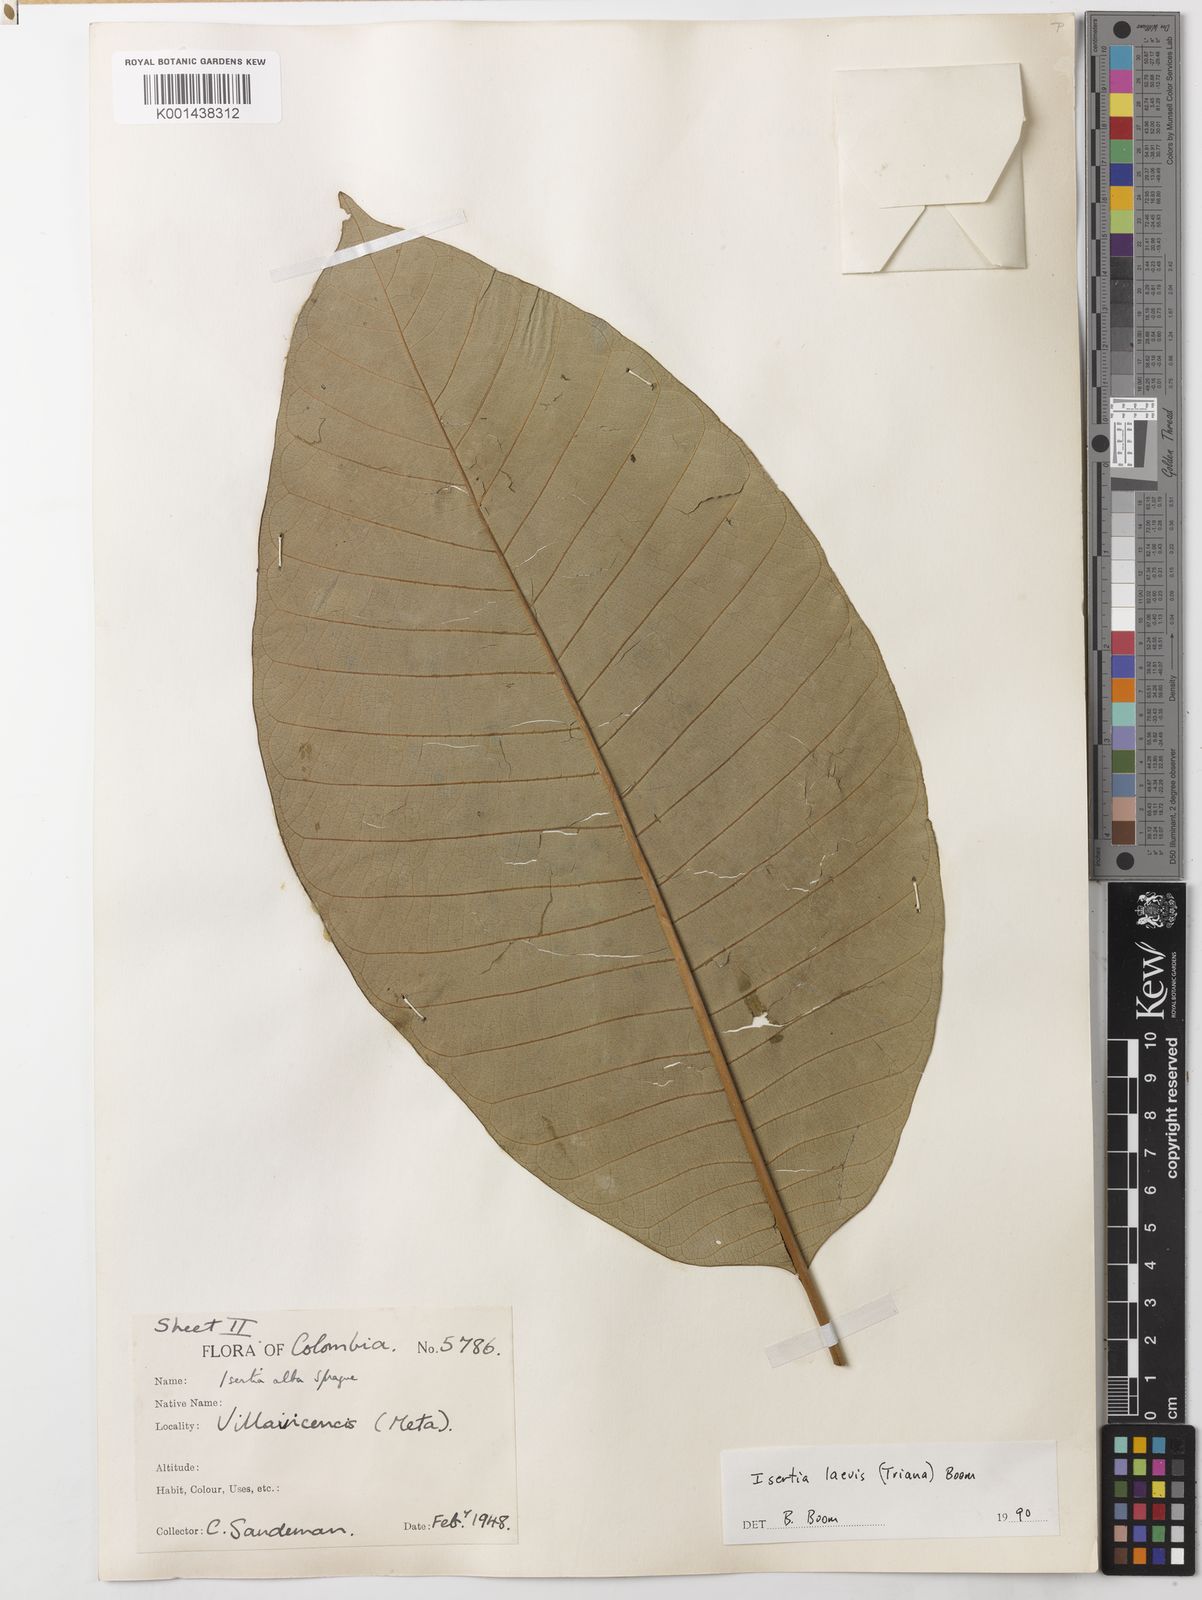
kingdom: Plantae
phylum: Tracheophyta
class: Magnoliopsida
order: Gentianales
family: Rubiaceae
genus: Isertia
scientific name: Isertia laevis
